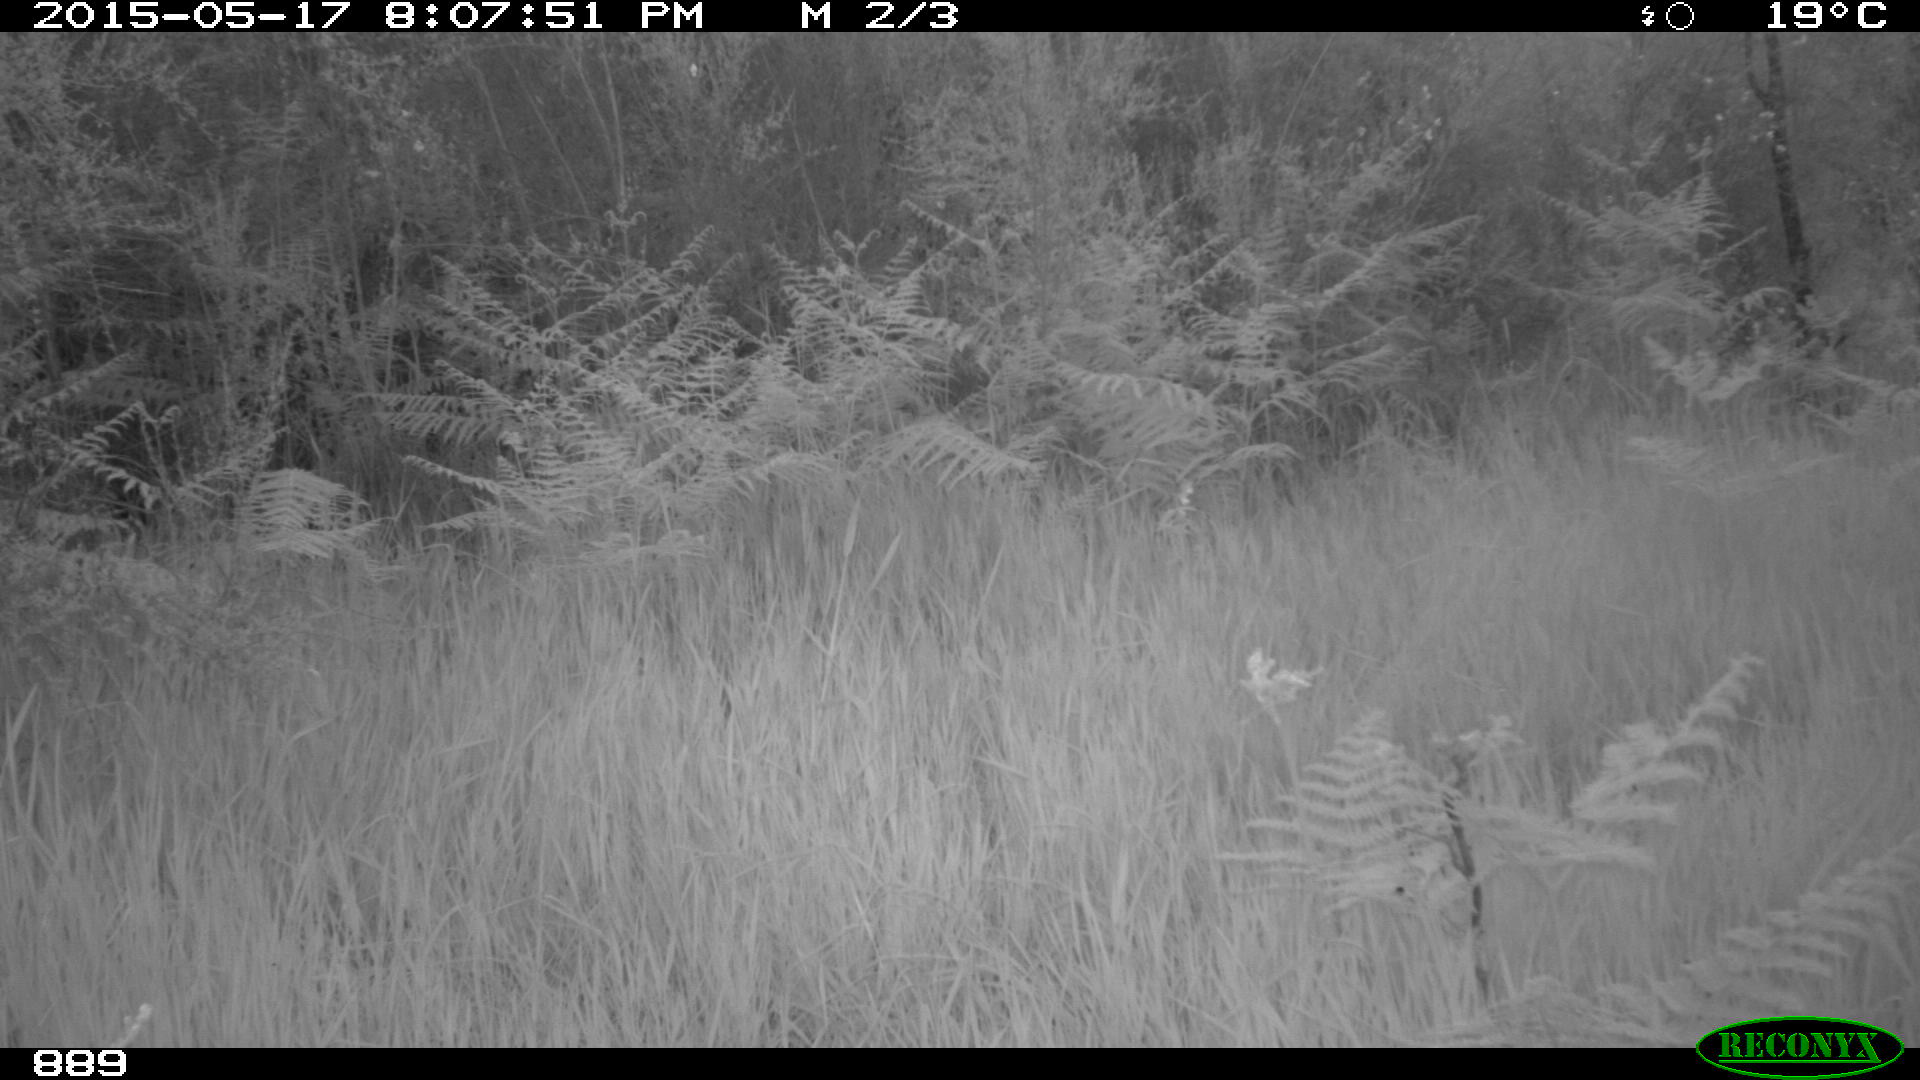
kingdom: Animalia
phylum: Chordata
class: Mammalia
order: Artiodactyla
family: Cervidae
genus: Capreolus
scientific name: Capreolus capreolus
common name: Western roe deer
